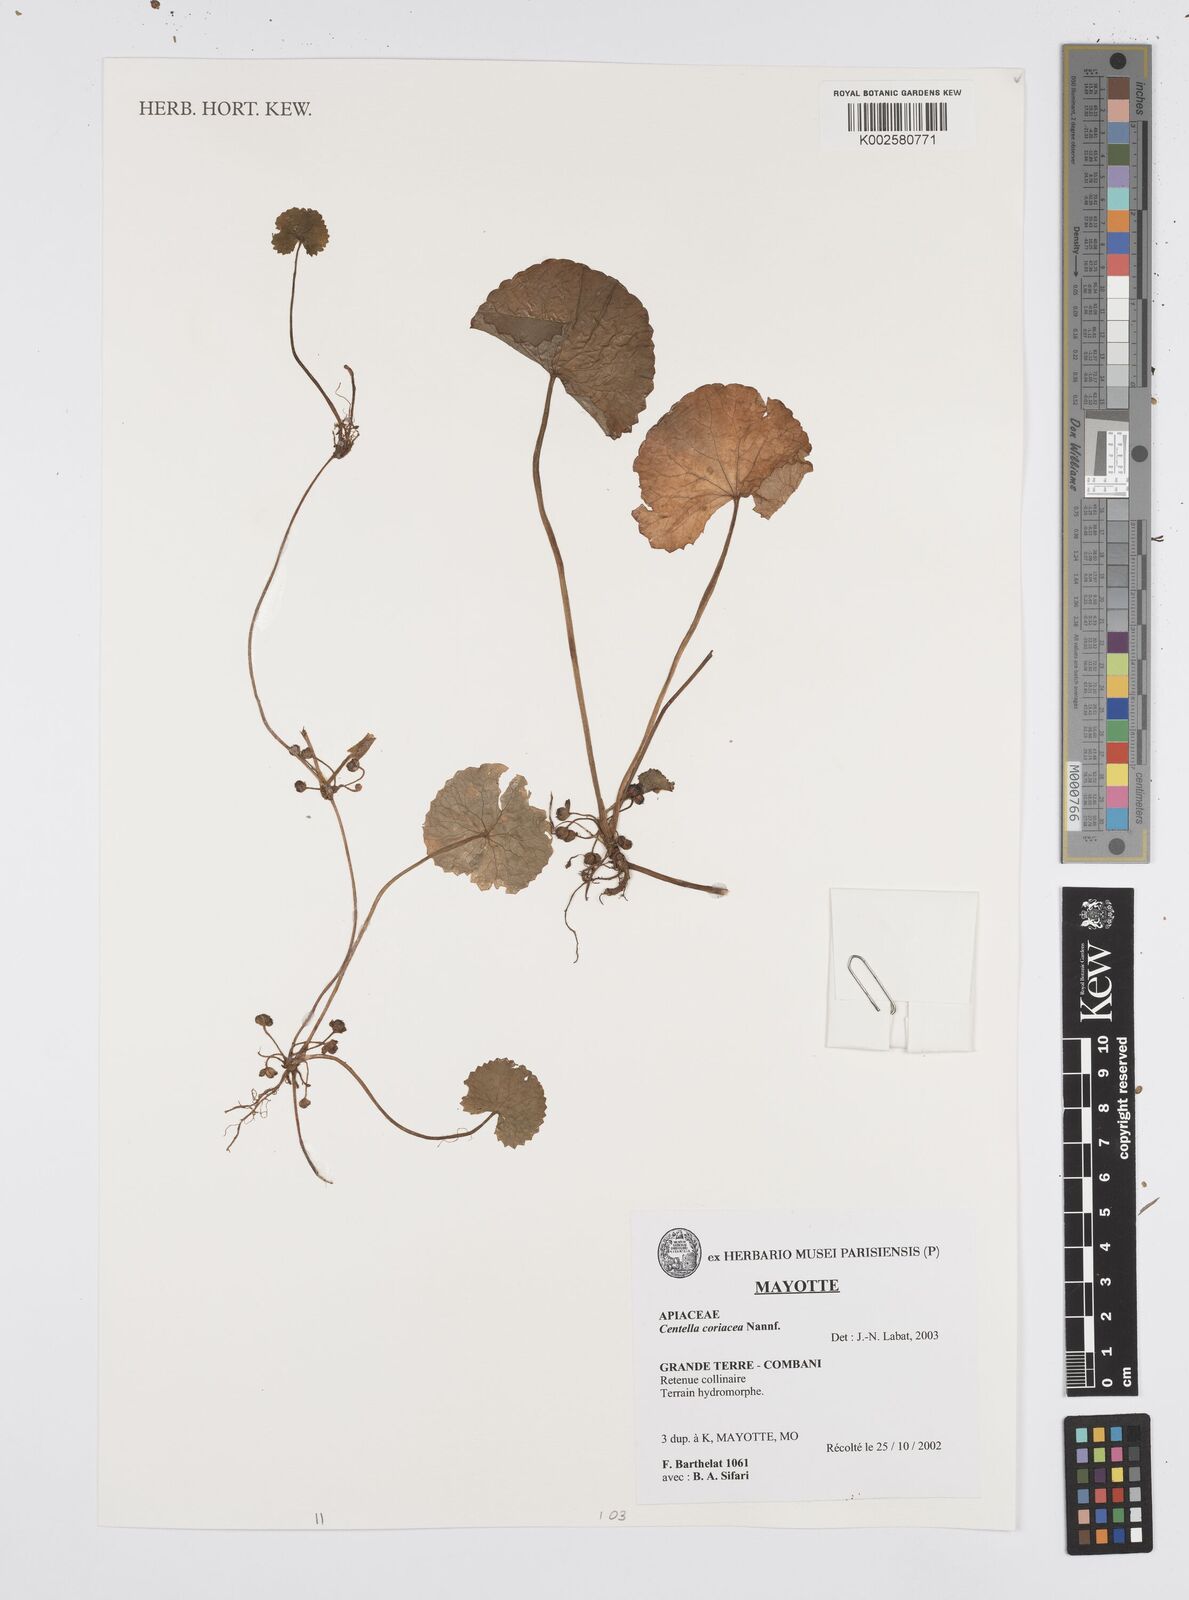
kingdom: Plantae
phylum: Tracheophyta
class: Magnoliopsida
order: Apiales
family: Apiaceae
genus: Centella
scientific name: Centella asiatica
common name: Spadeleaf
